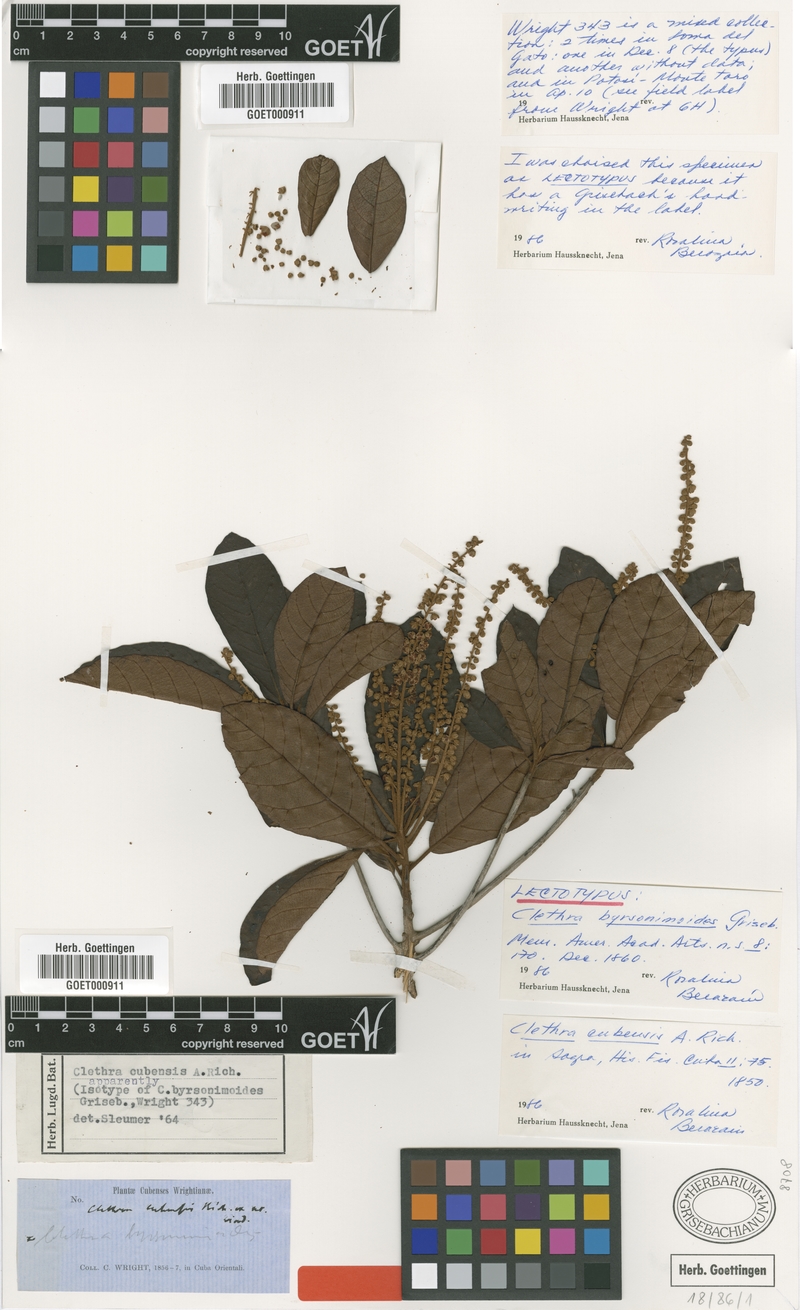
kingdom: Plantae
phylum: Tracheophyta
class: Magnoliopsida
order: Ericales
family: Clethraceae
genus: Clethra
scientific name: Clethra cubensis
